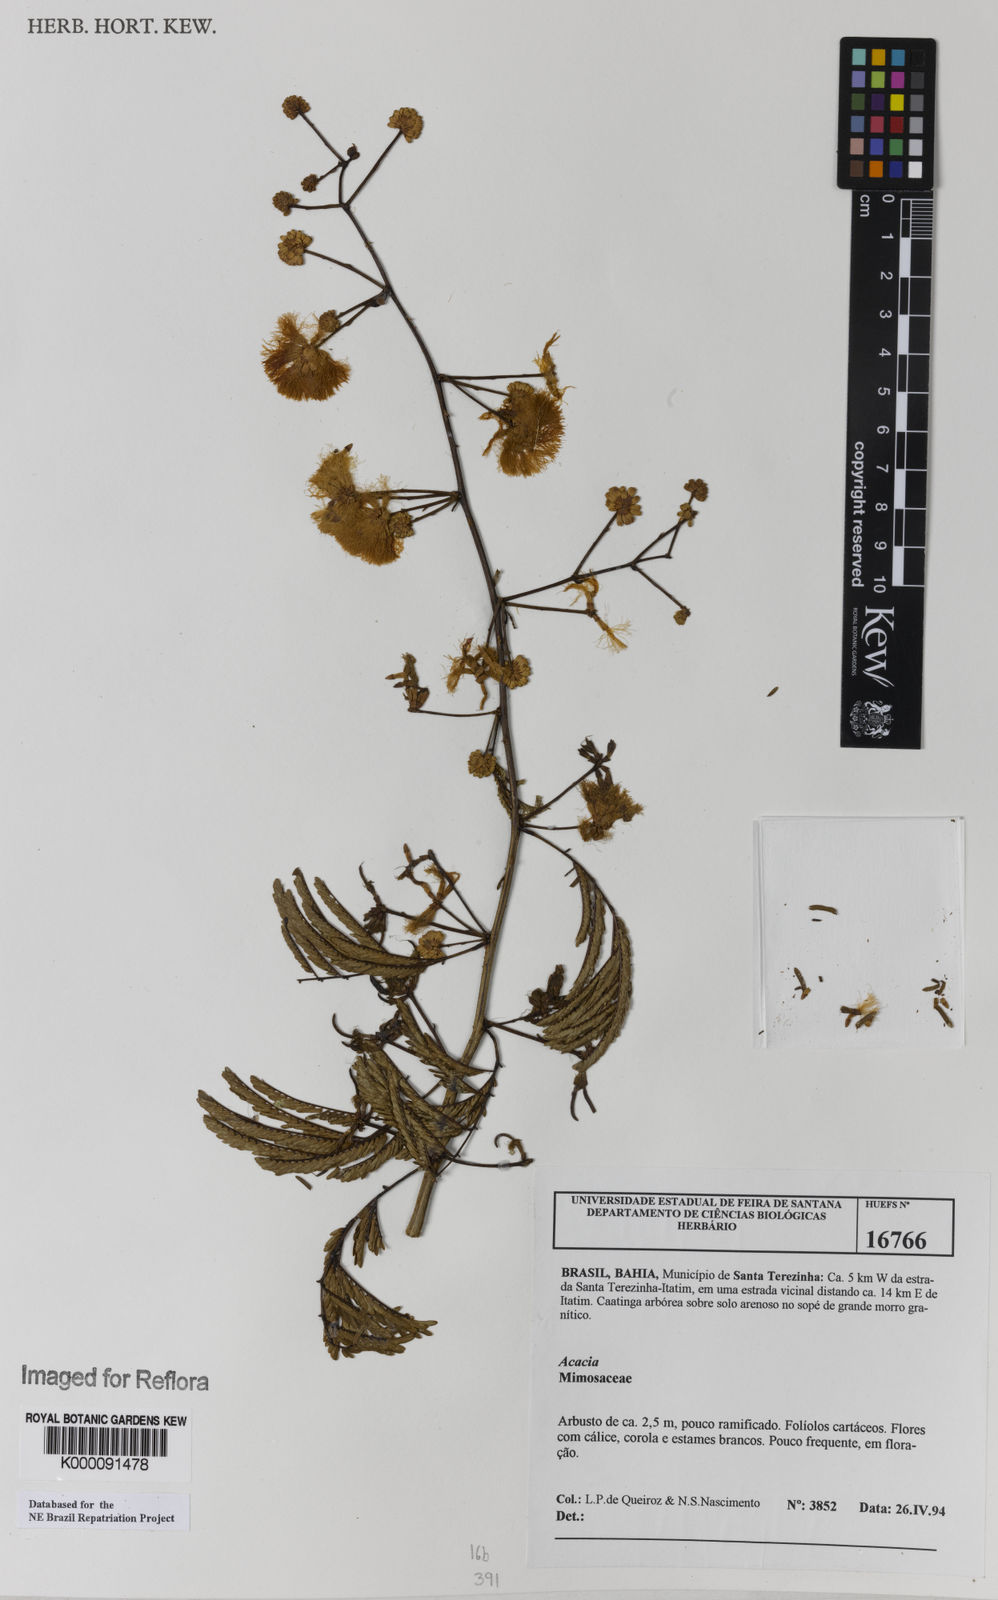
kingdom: Plantae
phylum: Tracheophyta
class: Magnoliopsida
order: Fabales
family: Fabaceae
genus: Acacia
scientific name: Acacia
